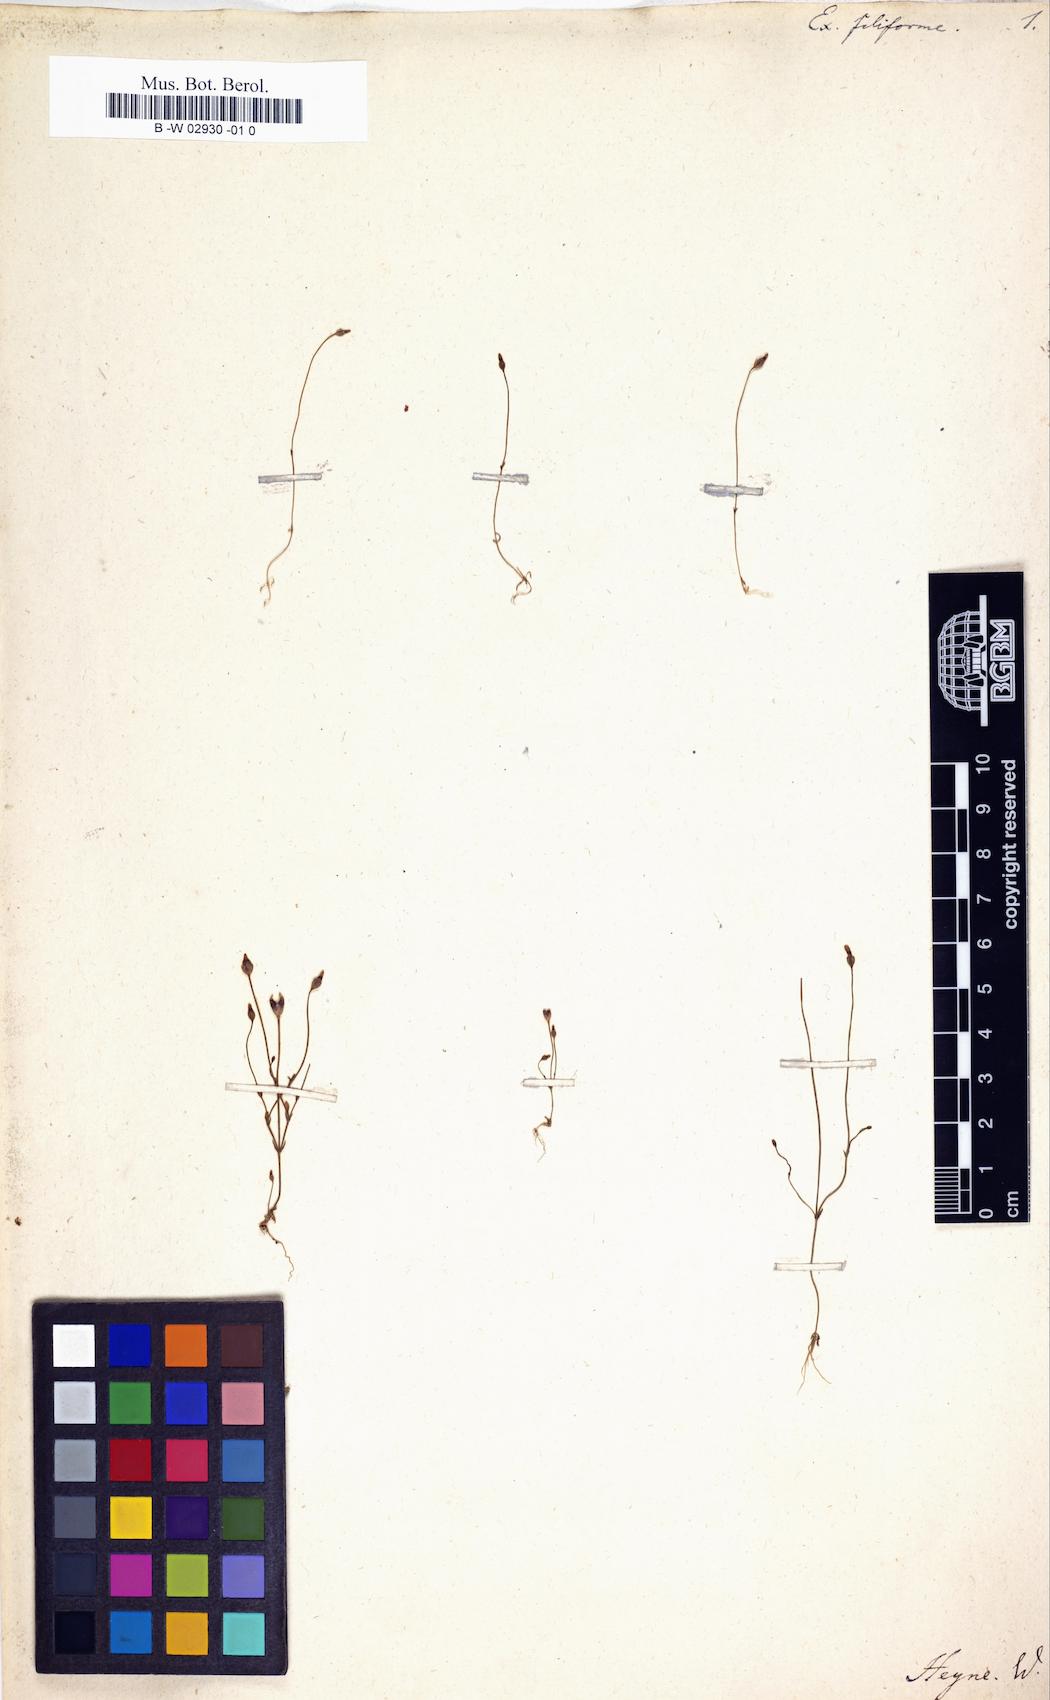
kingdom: Plantae
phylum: Tracheophyta
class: Magnoliopsida
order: Gentianales
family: Gentianaceae
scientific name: Gentianaceae
